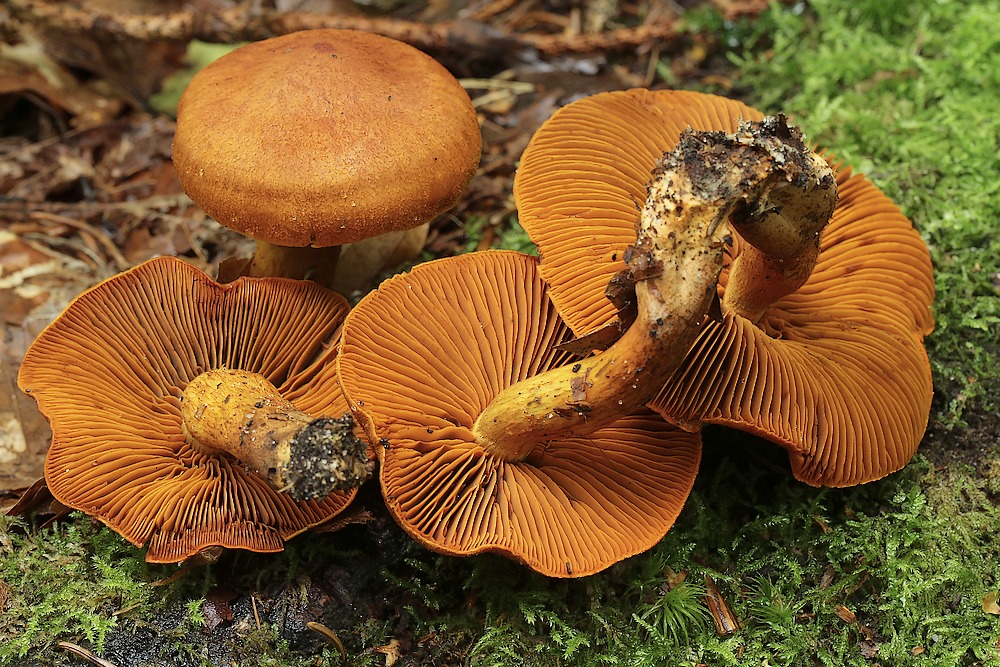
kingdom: Fungi
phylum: Basidiomycota
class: Agaricomycetes
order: Agaricales
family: Cortinariaceae
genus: Cortinarius
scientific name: Cortinarius
